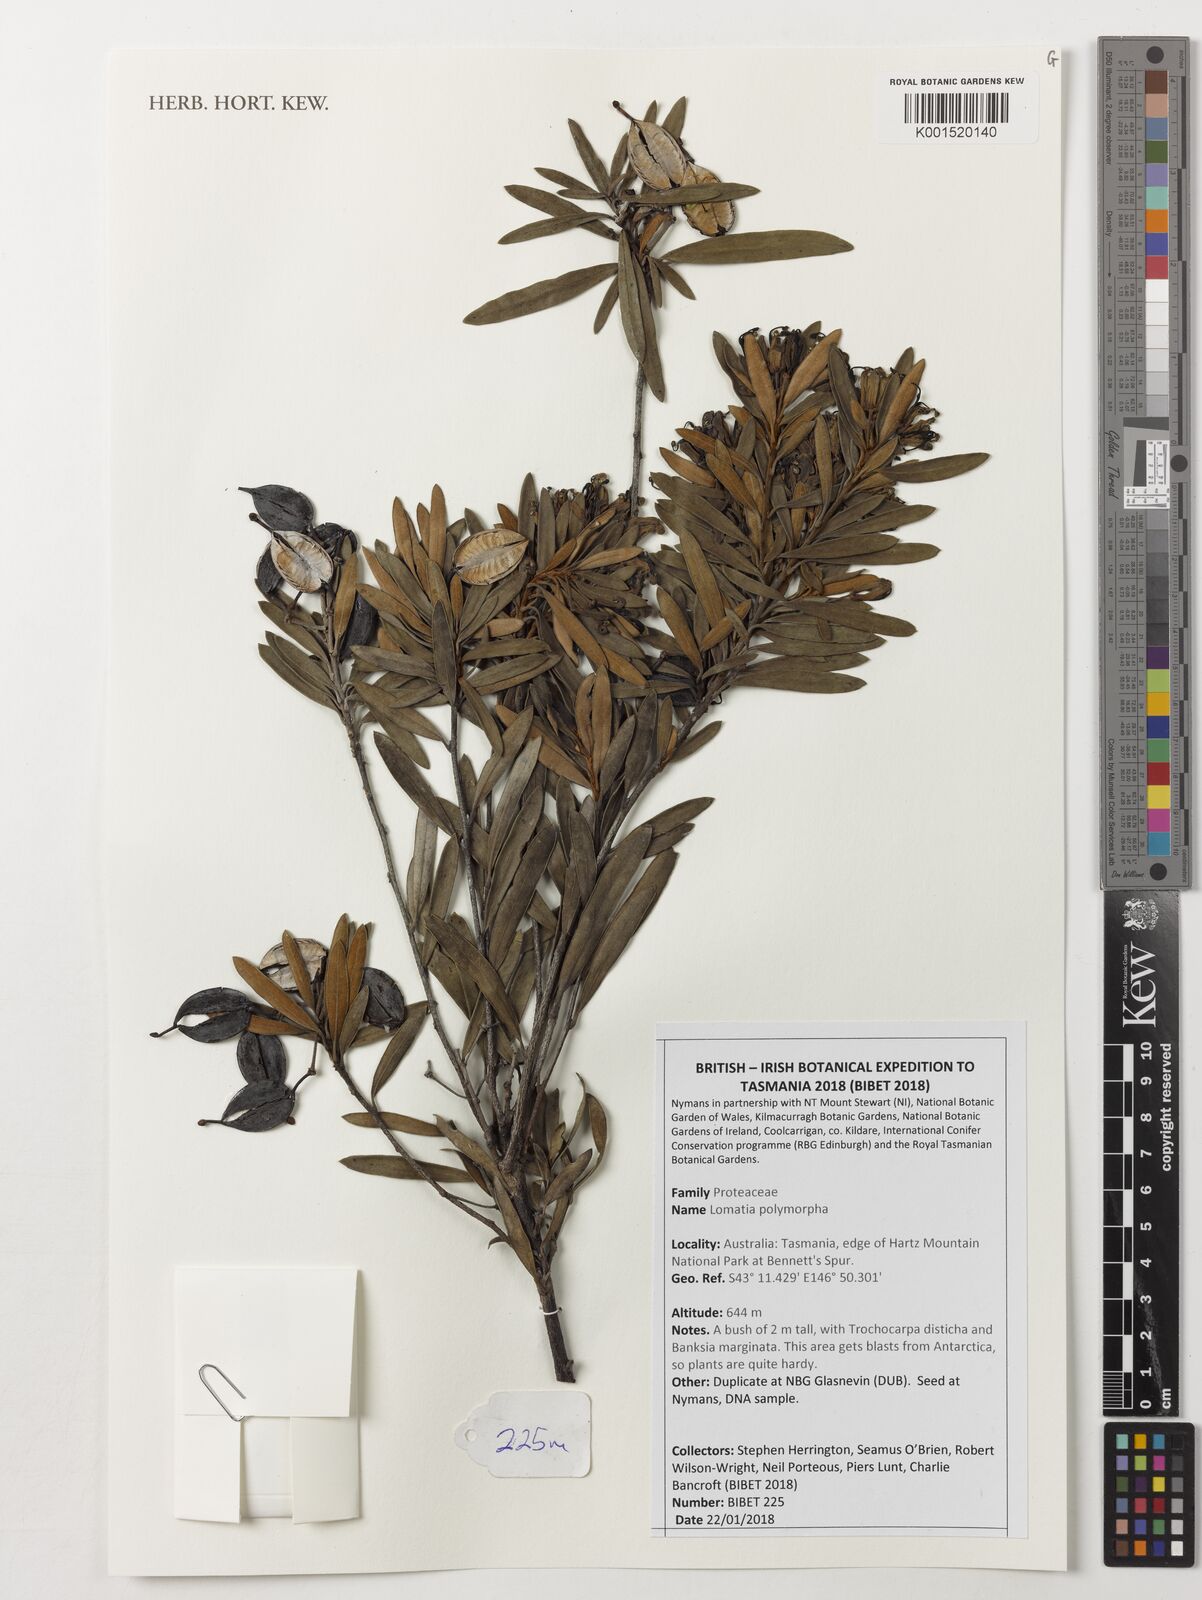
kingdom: Plantae
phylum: Tracheophyta
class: Magnoliopsida
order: Proteales
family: Proteaceae
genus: Lomatia
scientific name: Lomatia polymorpha
